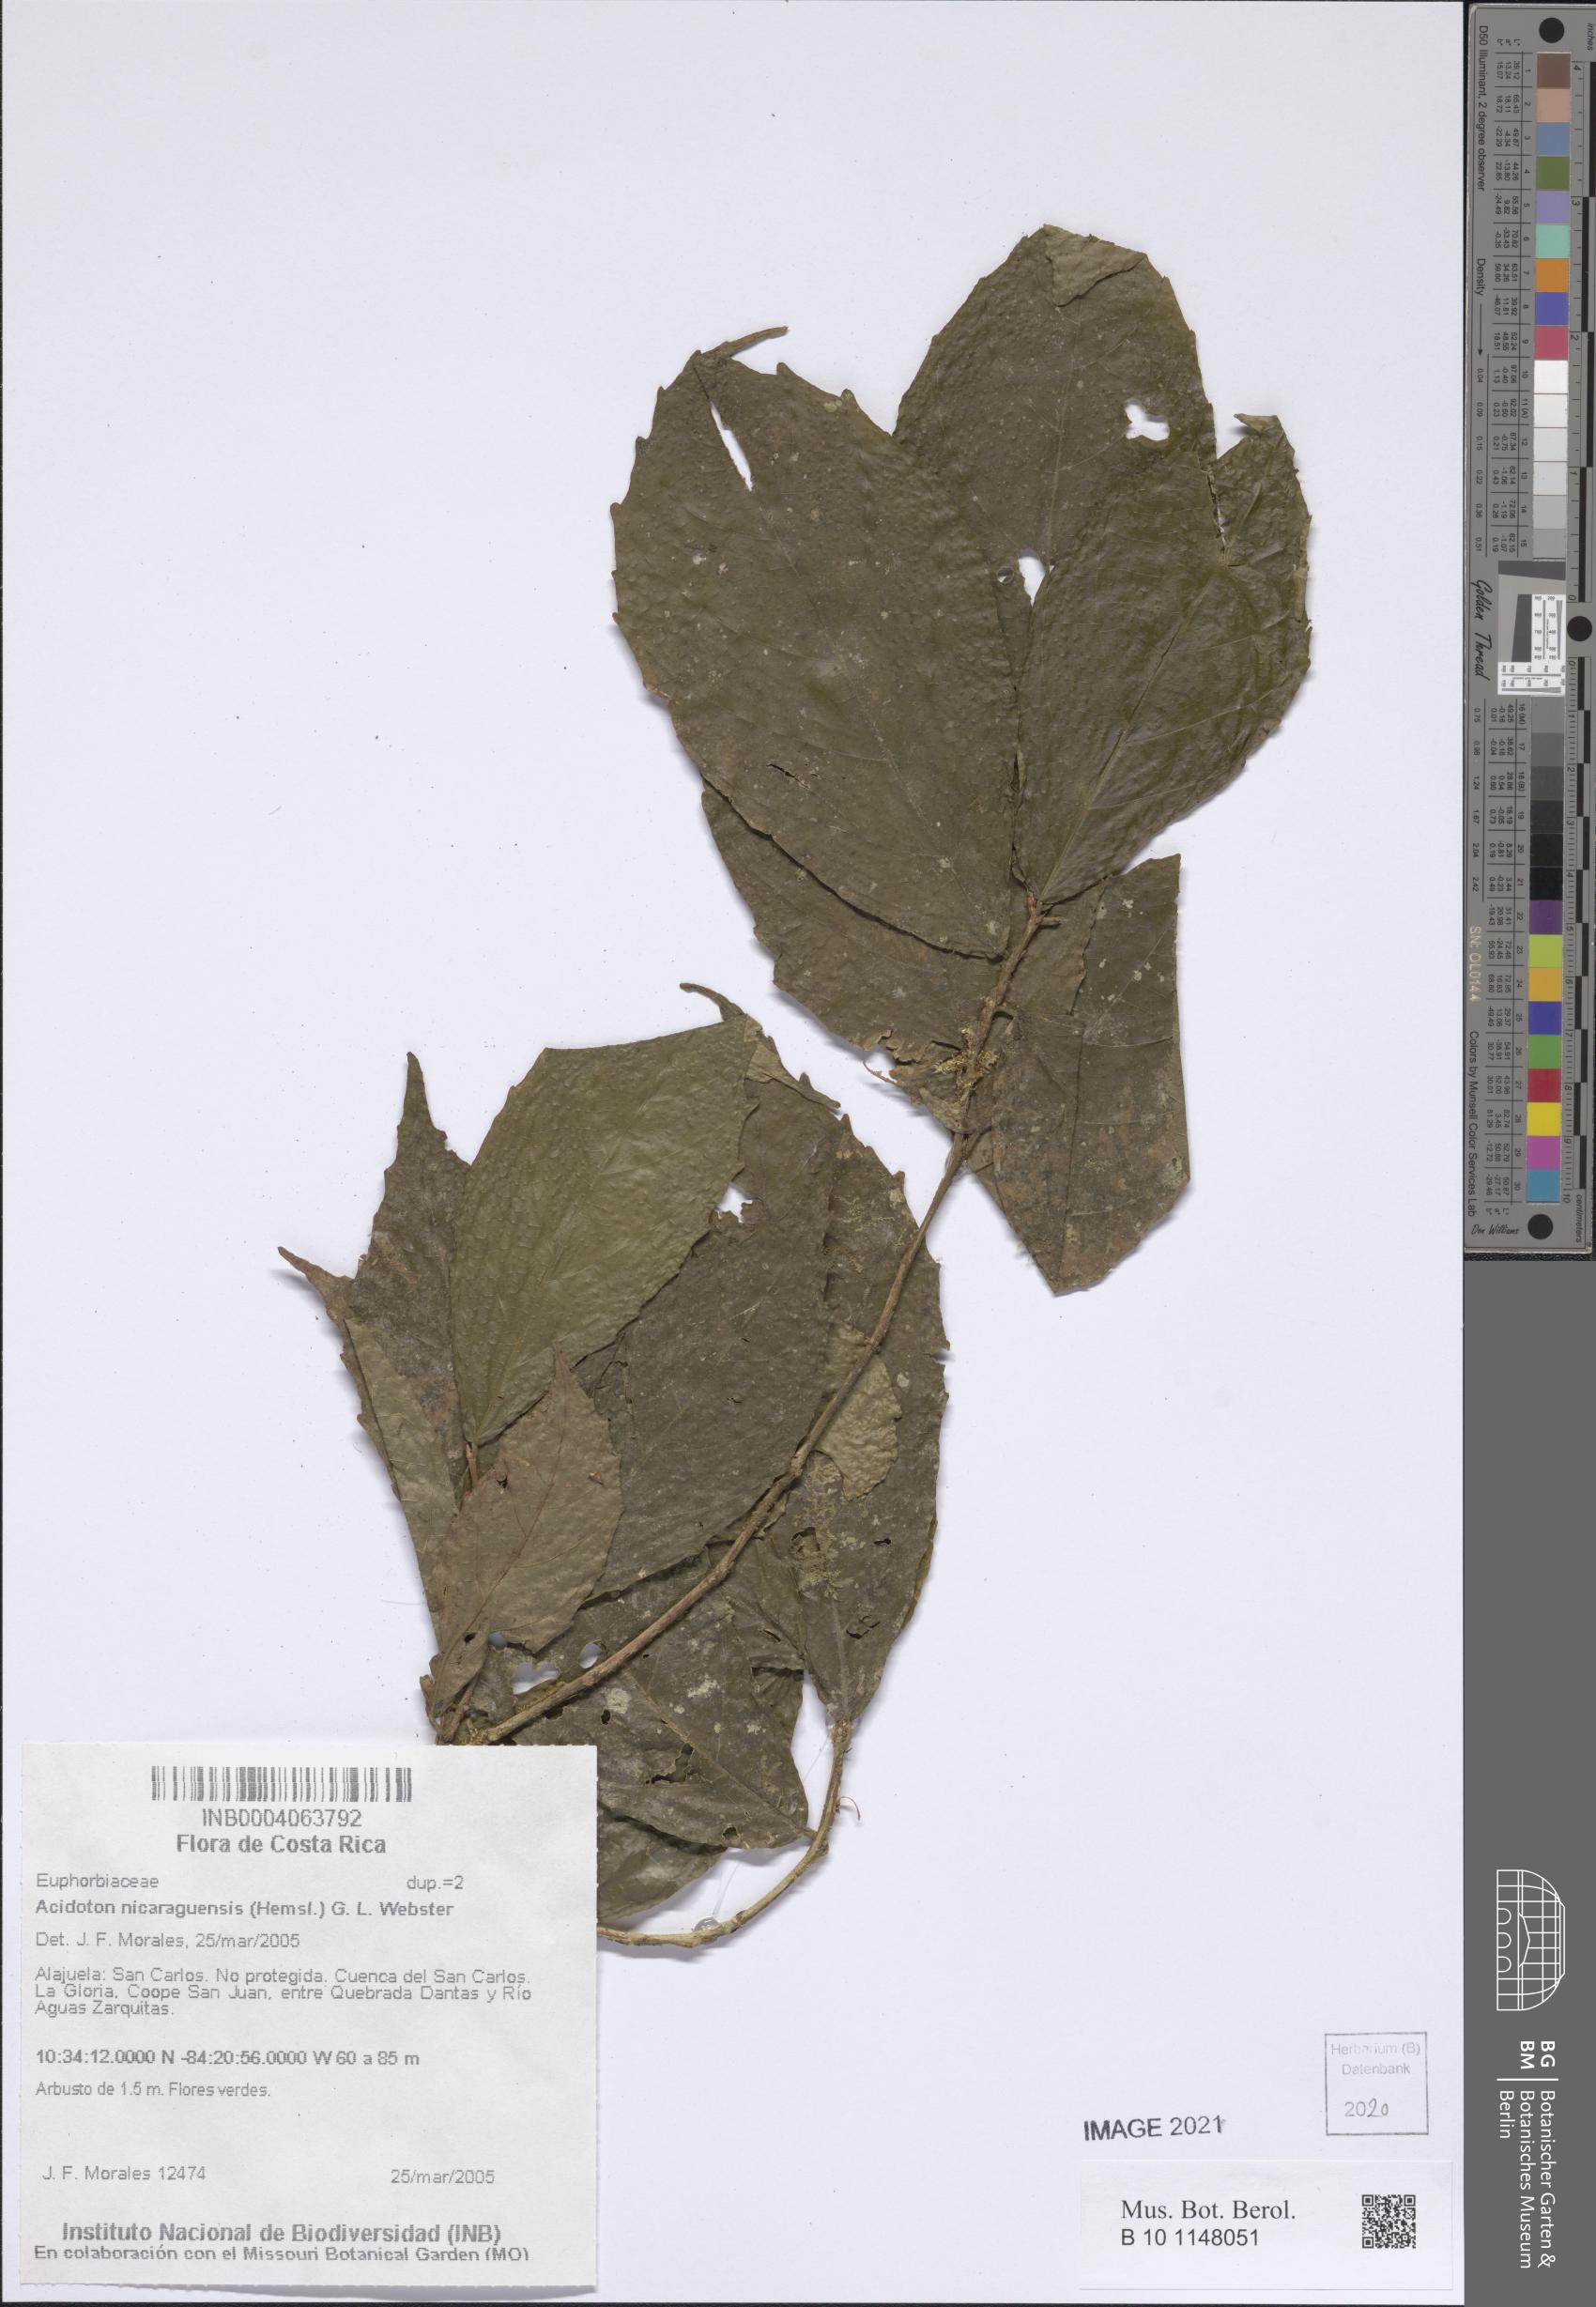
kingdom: Plantae
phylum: Tracheophyta
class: Magnoliopsida
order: Malpighiales
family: Euphorbiaceae
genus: Gitara
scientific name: Gitara nicaraguensis
